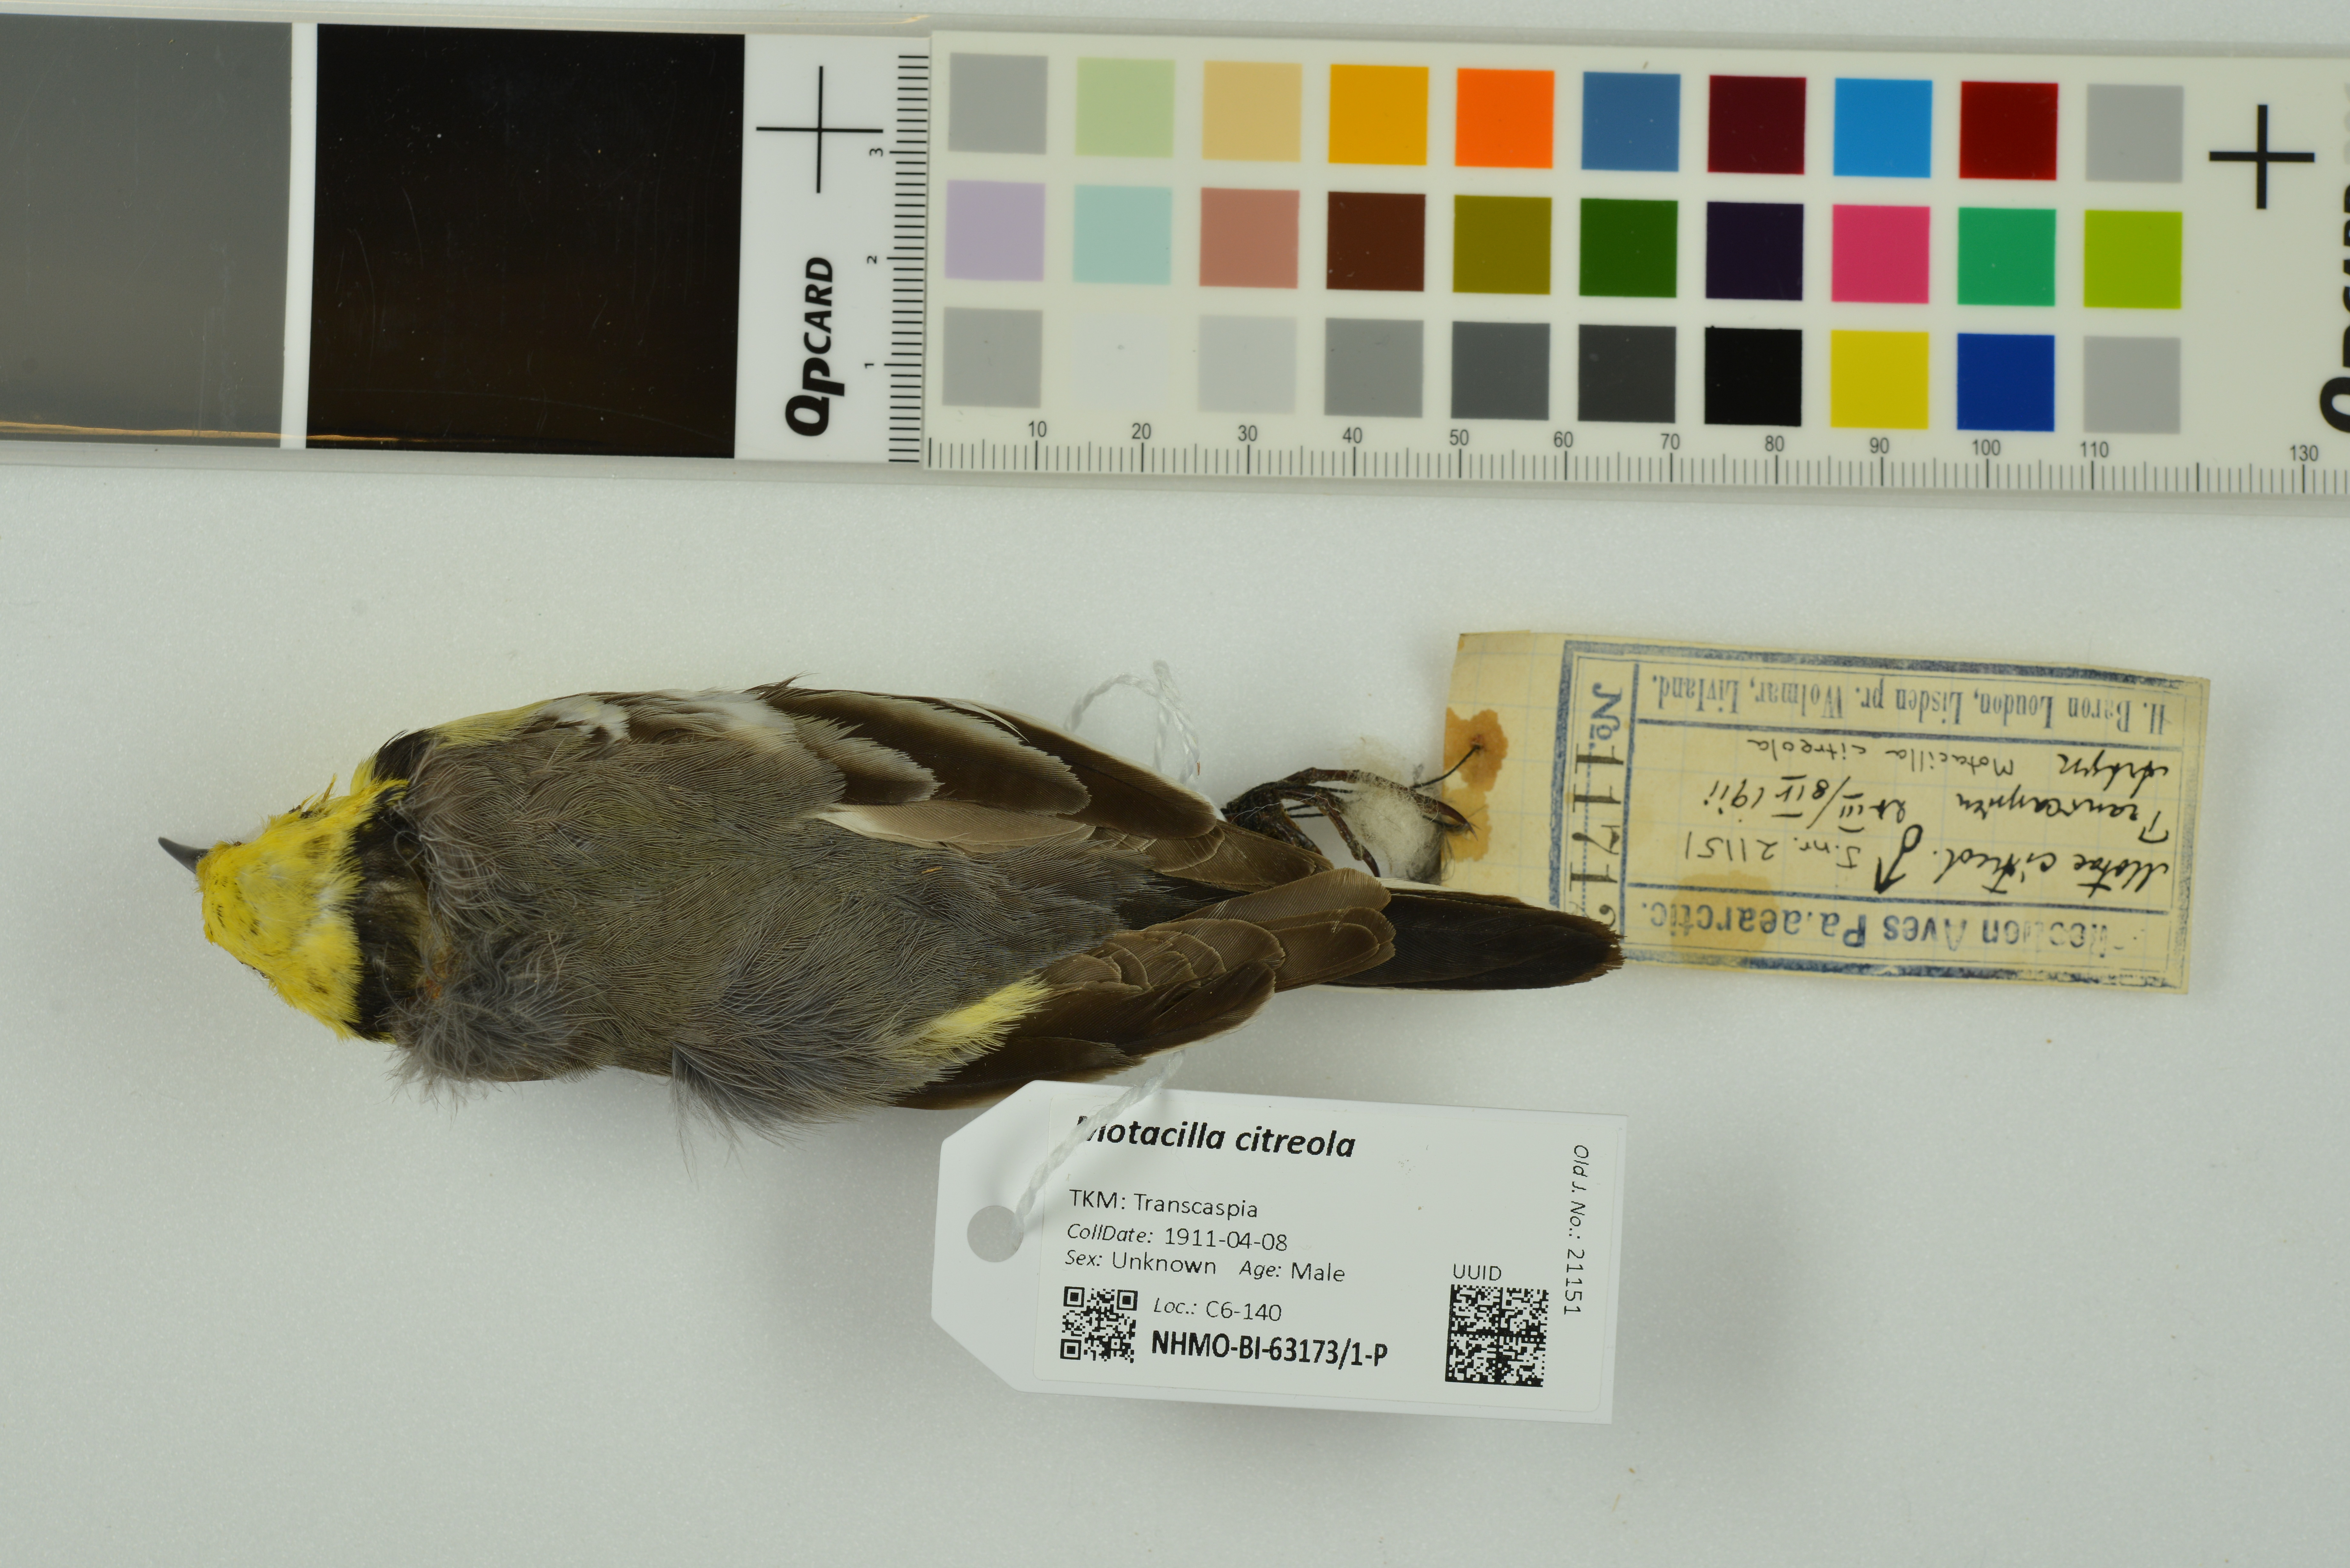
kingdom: Animalia
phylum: Chordata
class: Aves
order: Passeriformes
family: Motacillidae
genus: Motacilla
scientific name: Motacilla citreola
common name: Citrine wagtail
